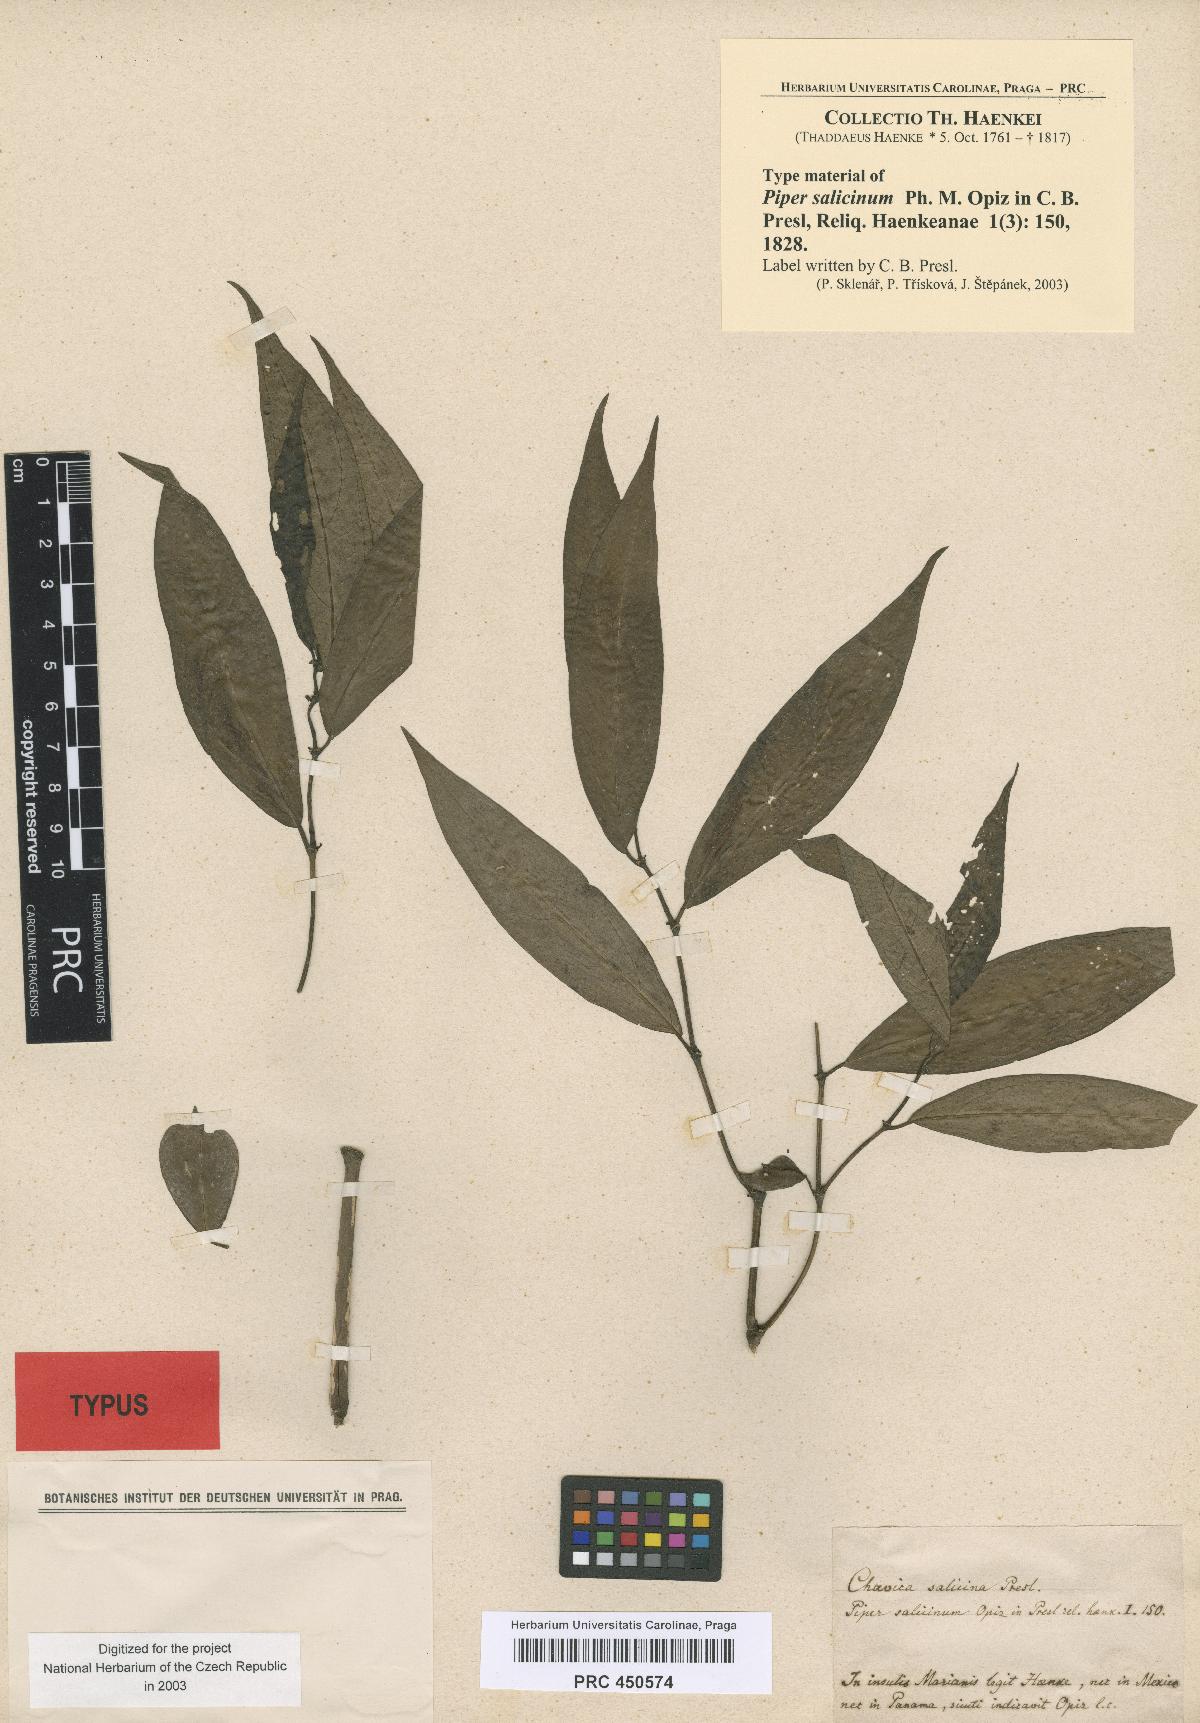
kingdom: Plantae
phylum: Tracheophyta
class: Magnoliopsida
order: Piperales
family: Piperaceae
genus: Piper
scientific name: Piper salicinum
